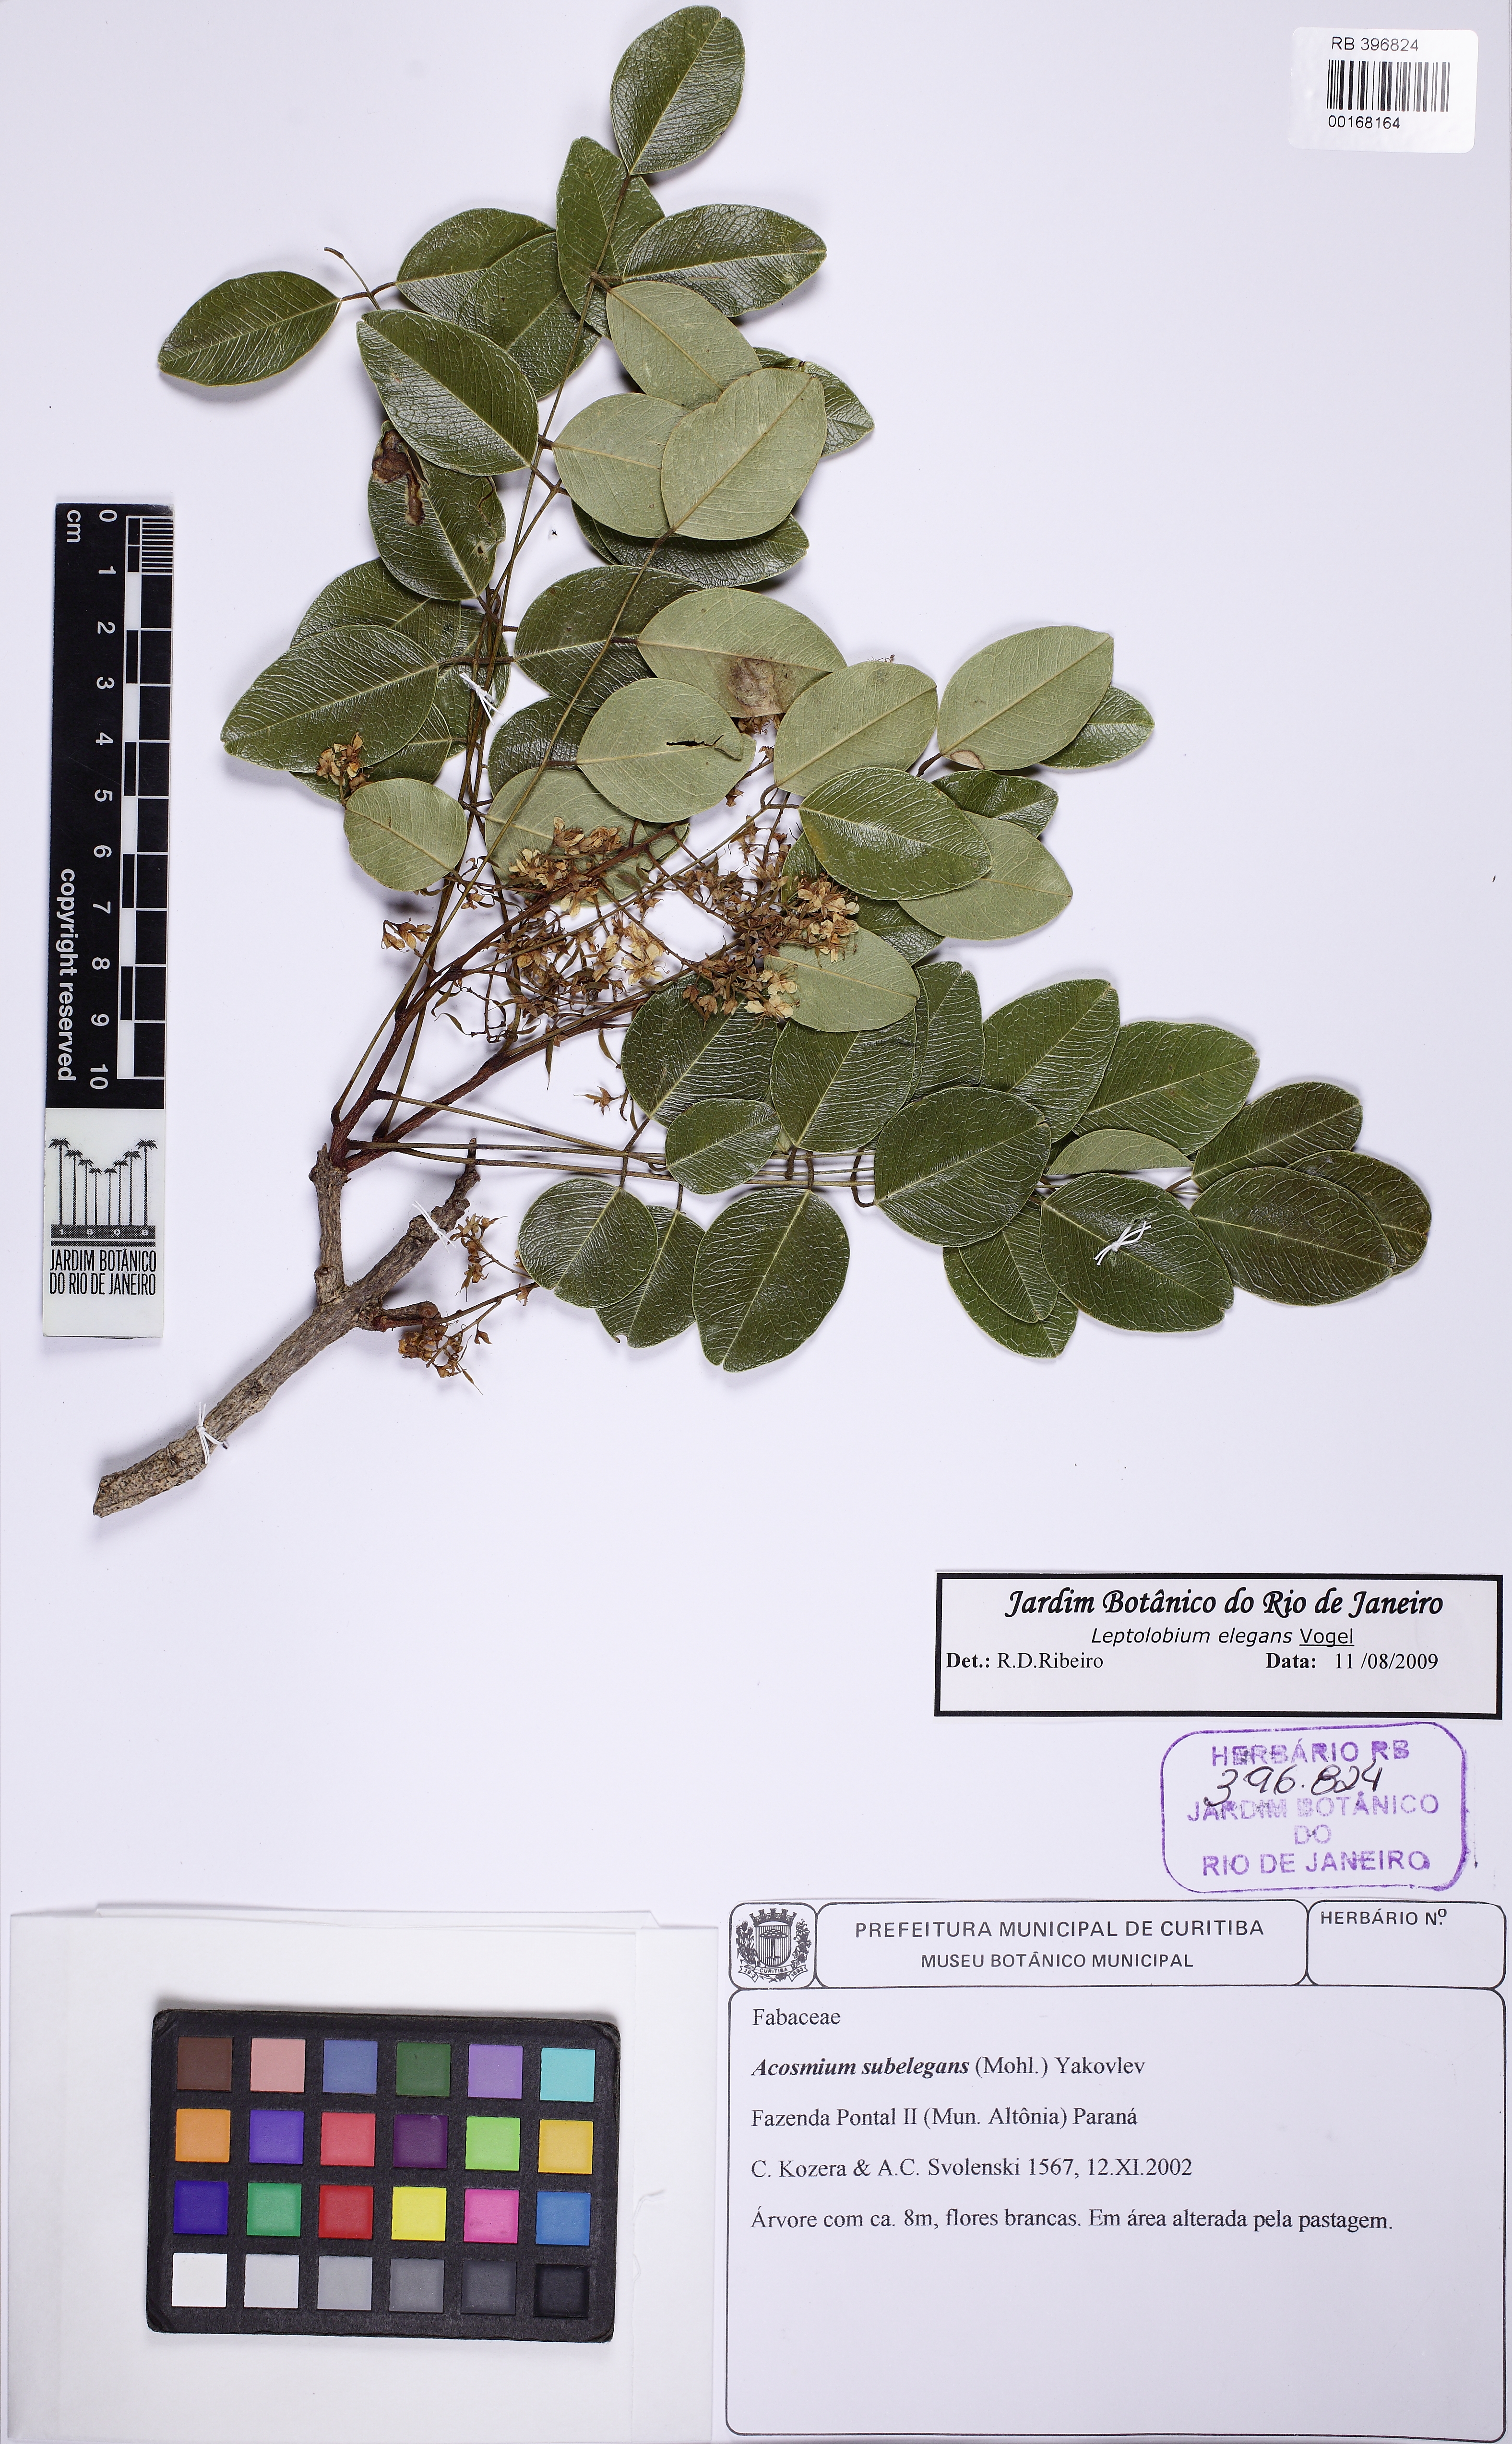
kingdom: Plantae
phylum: Tracheophyta
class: Magnoliopsida
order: Fabales
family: Fabaceae
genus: Leptolobium
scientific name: Leptolobium elegans
